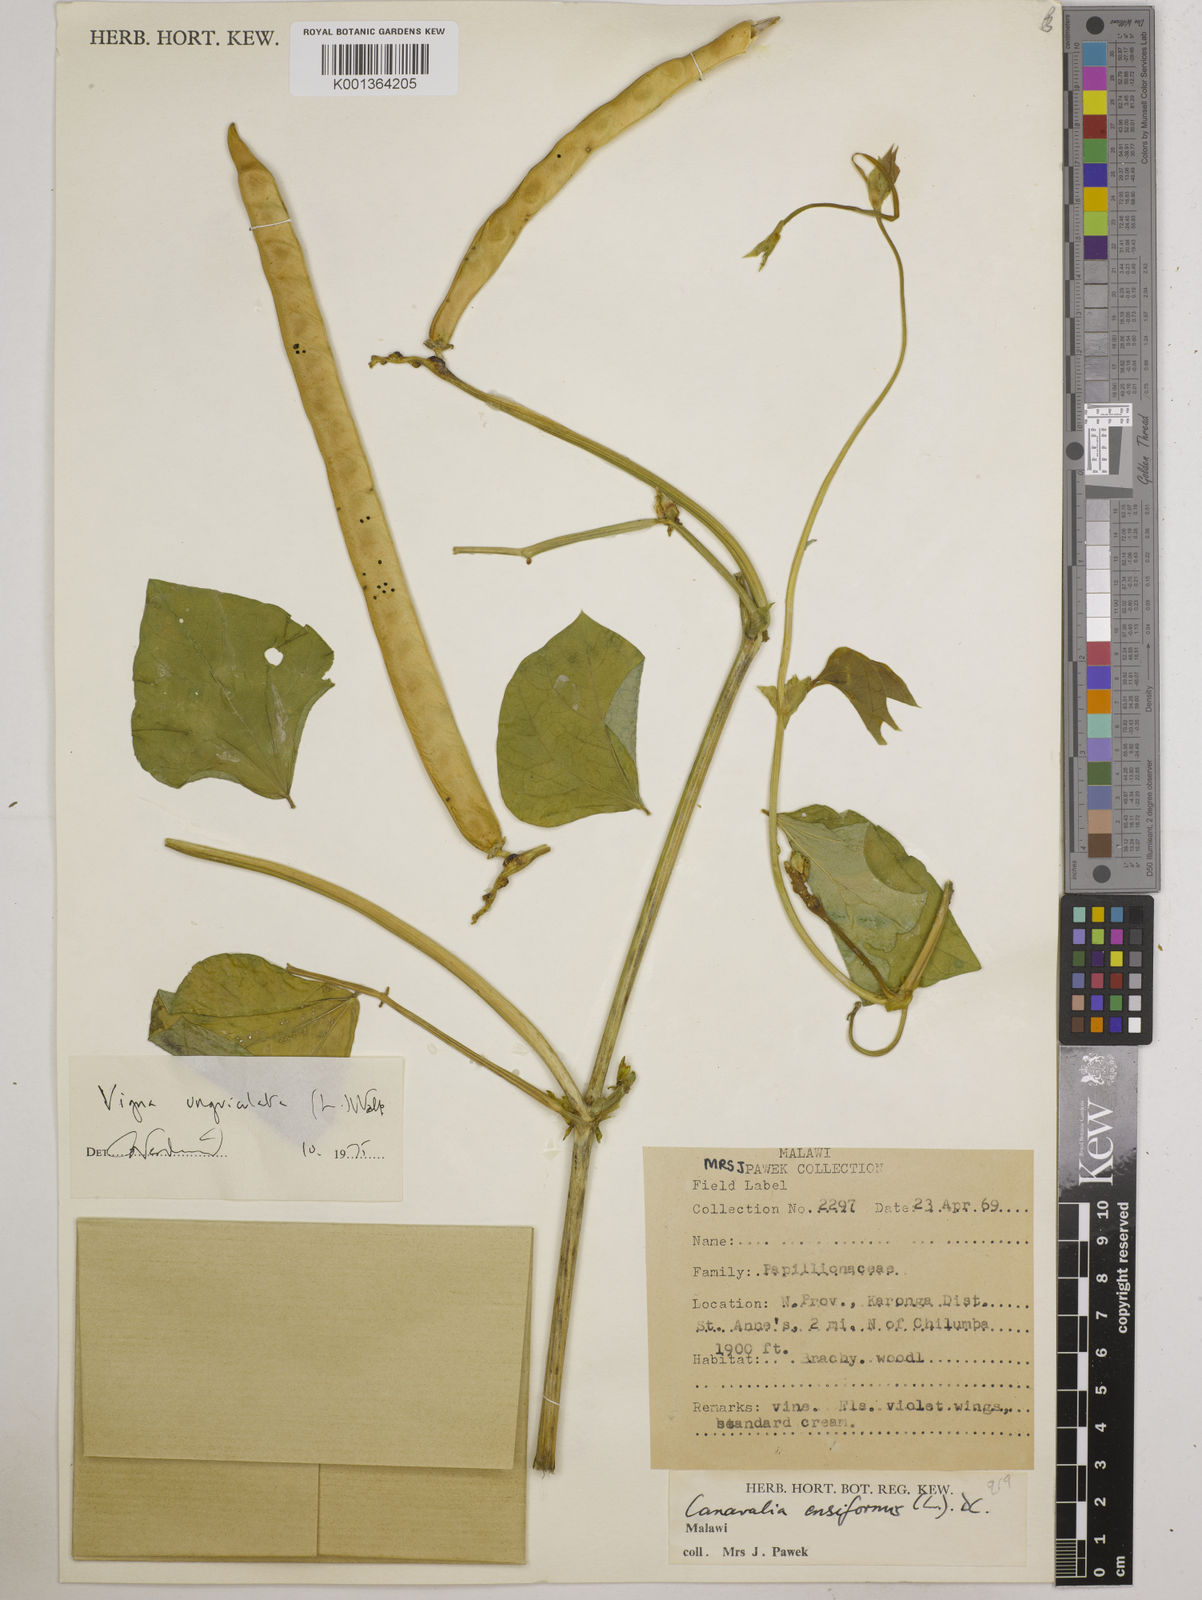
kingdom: Plantae
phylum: Tracheophyta
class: Magnoliopsida
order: Fabales
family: Fabaceae
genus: Vigna
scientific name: Vigna
